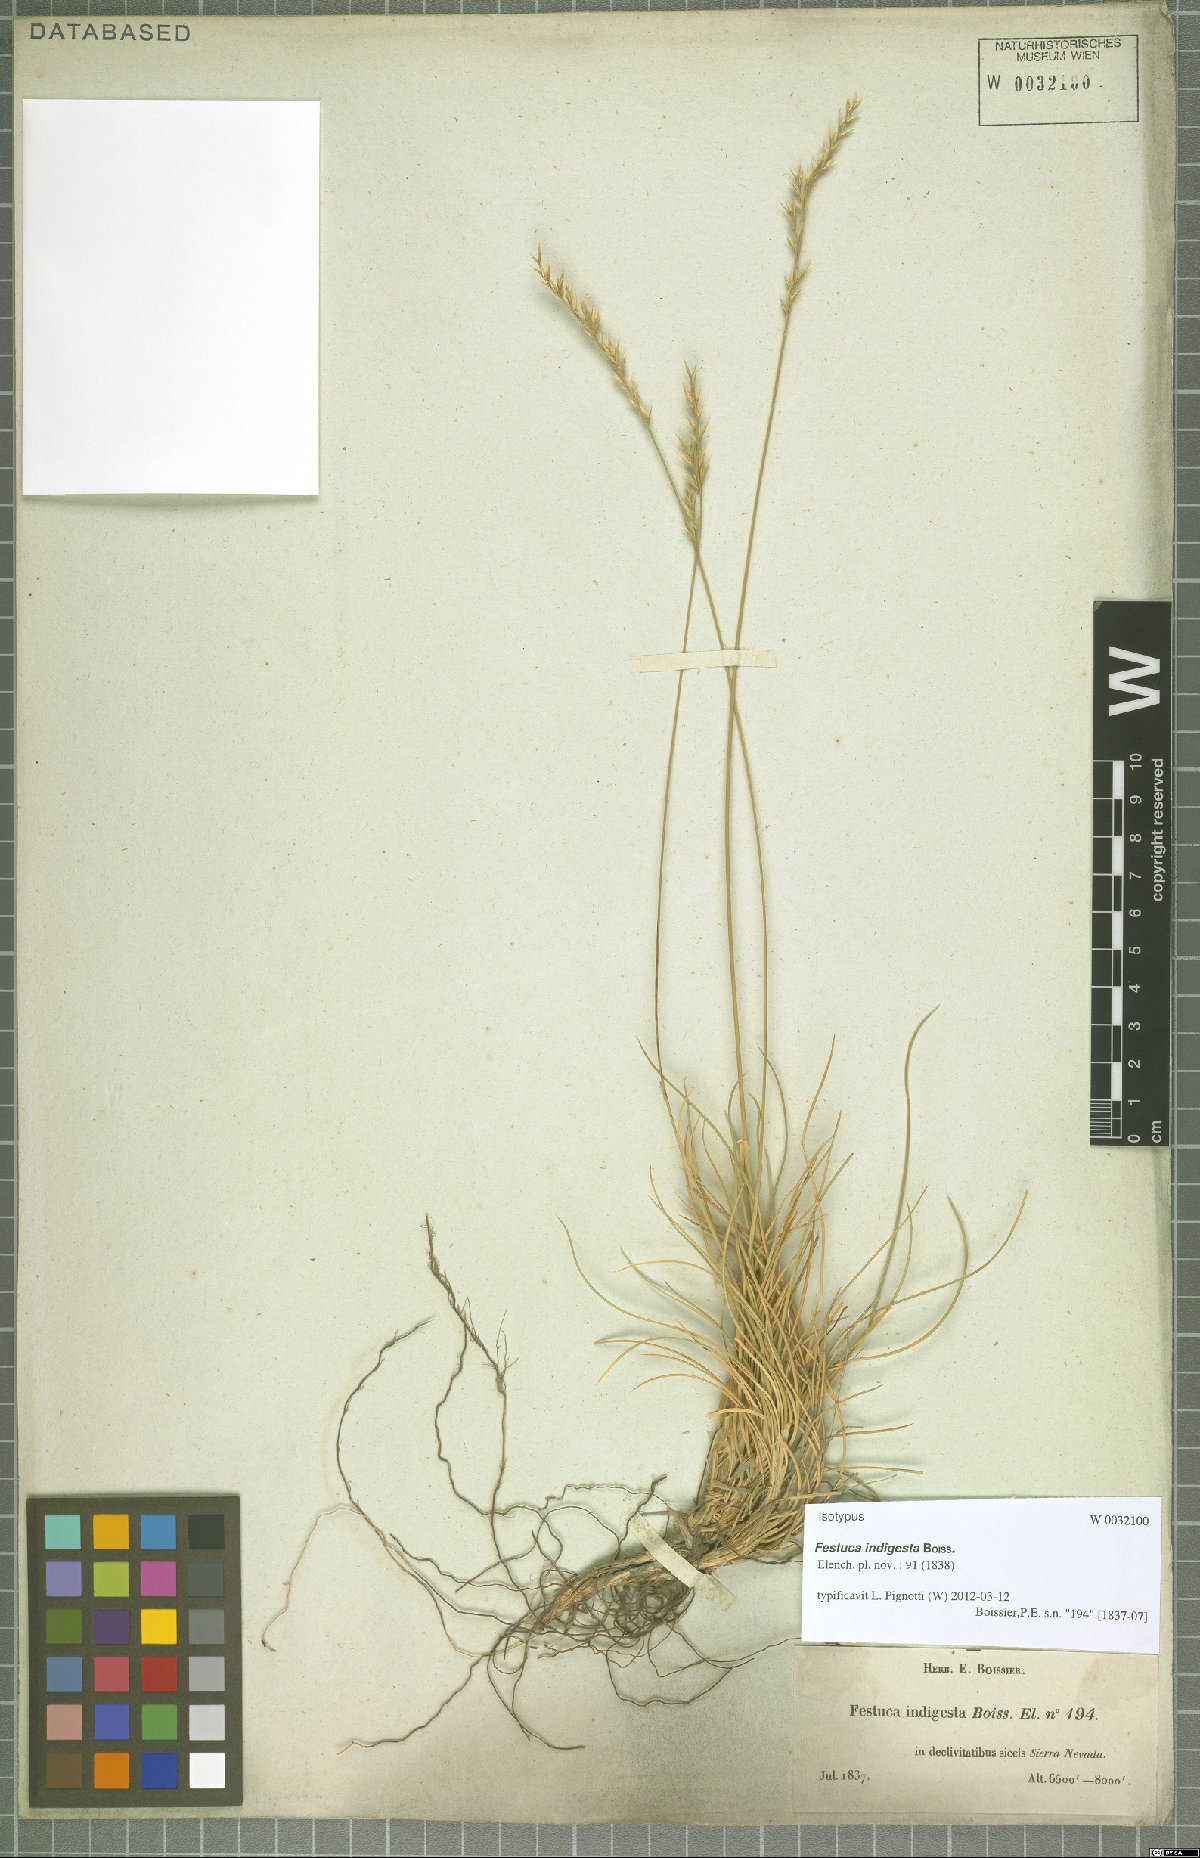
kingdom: Plantae
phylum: Tracheophyta
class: Liliopsida
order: Poales
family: Poaceae
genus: Festuca
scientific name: Festuca indigesta
